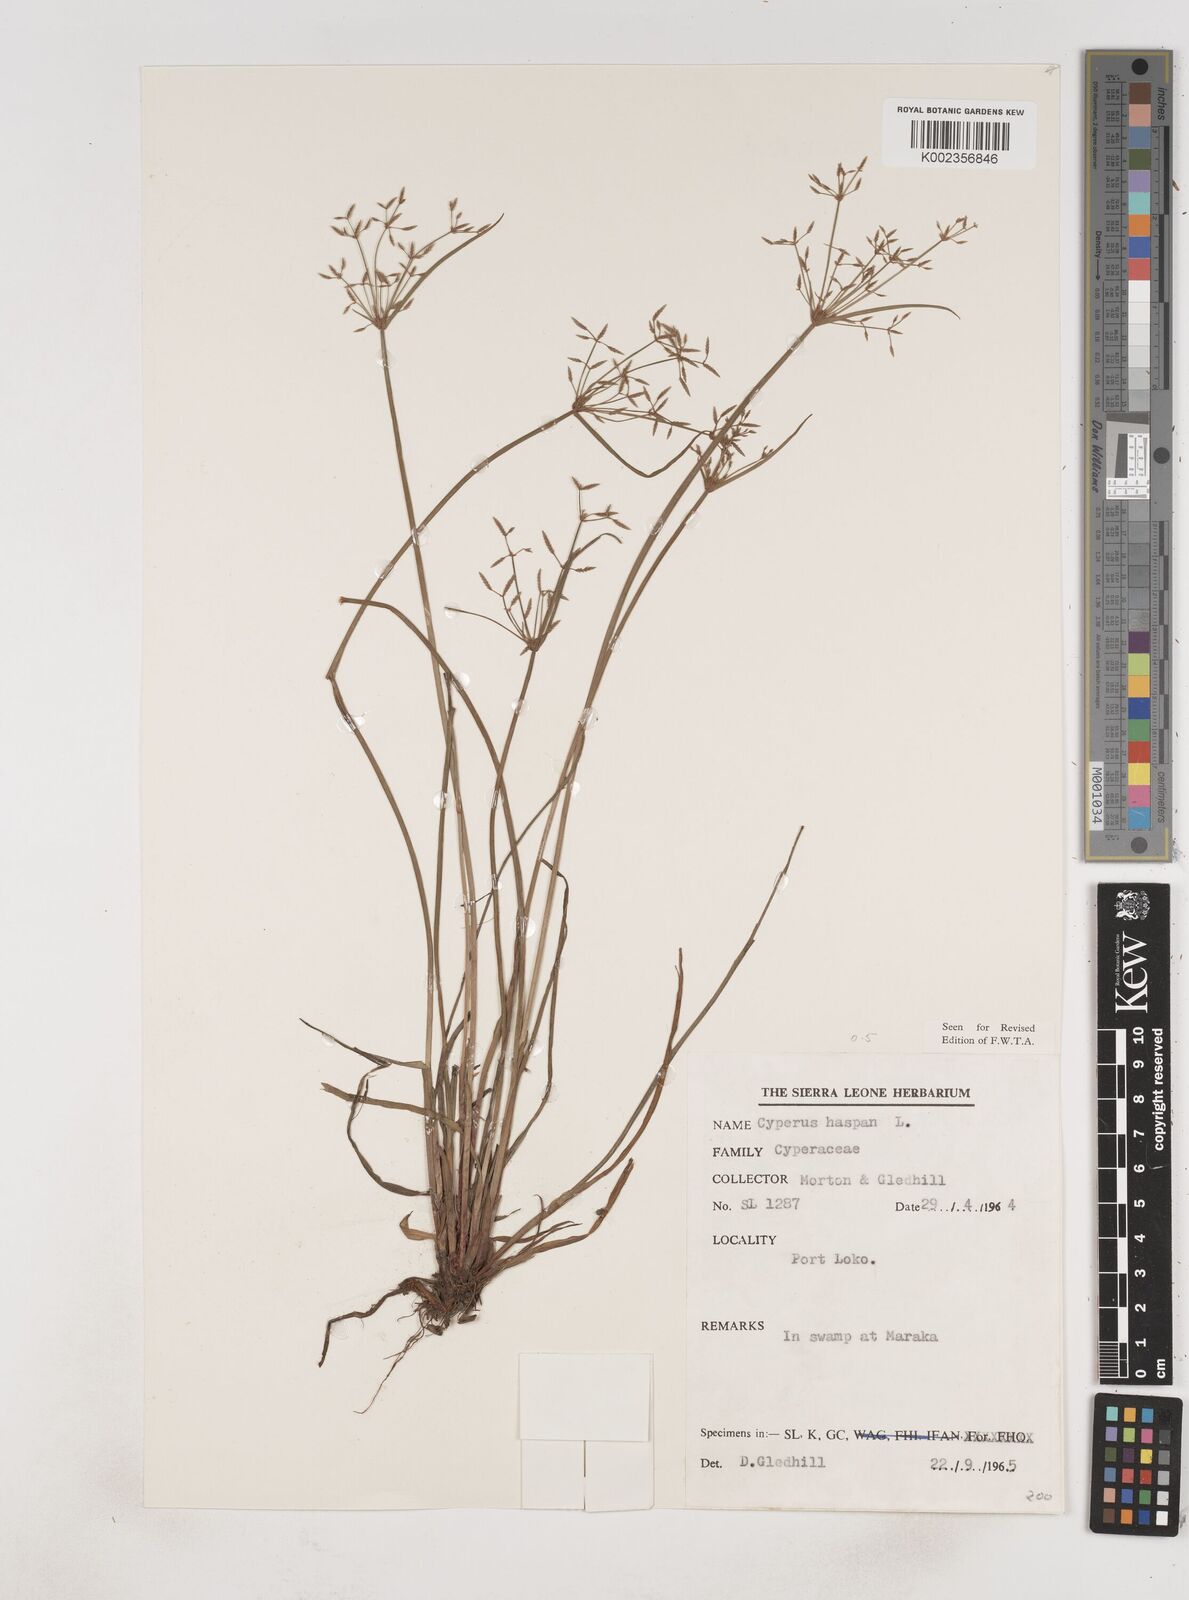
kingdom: Plantae
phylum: Tracheophyta
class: Liliopsida
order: Poales
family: Cyperaceae
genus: Cyperus
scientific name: Cyperus haspan
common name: Haspan flatsedge
